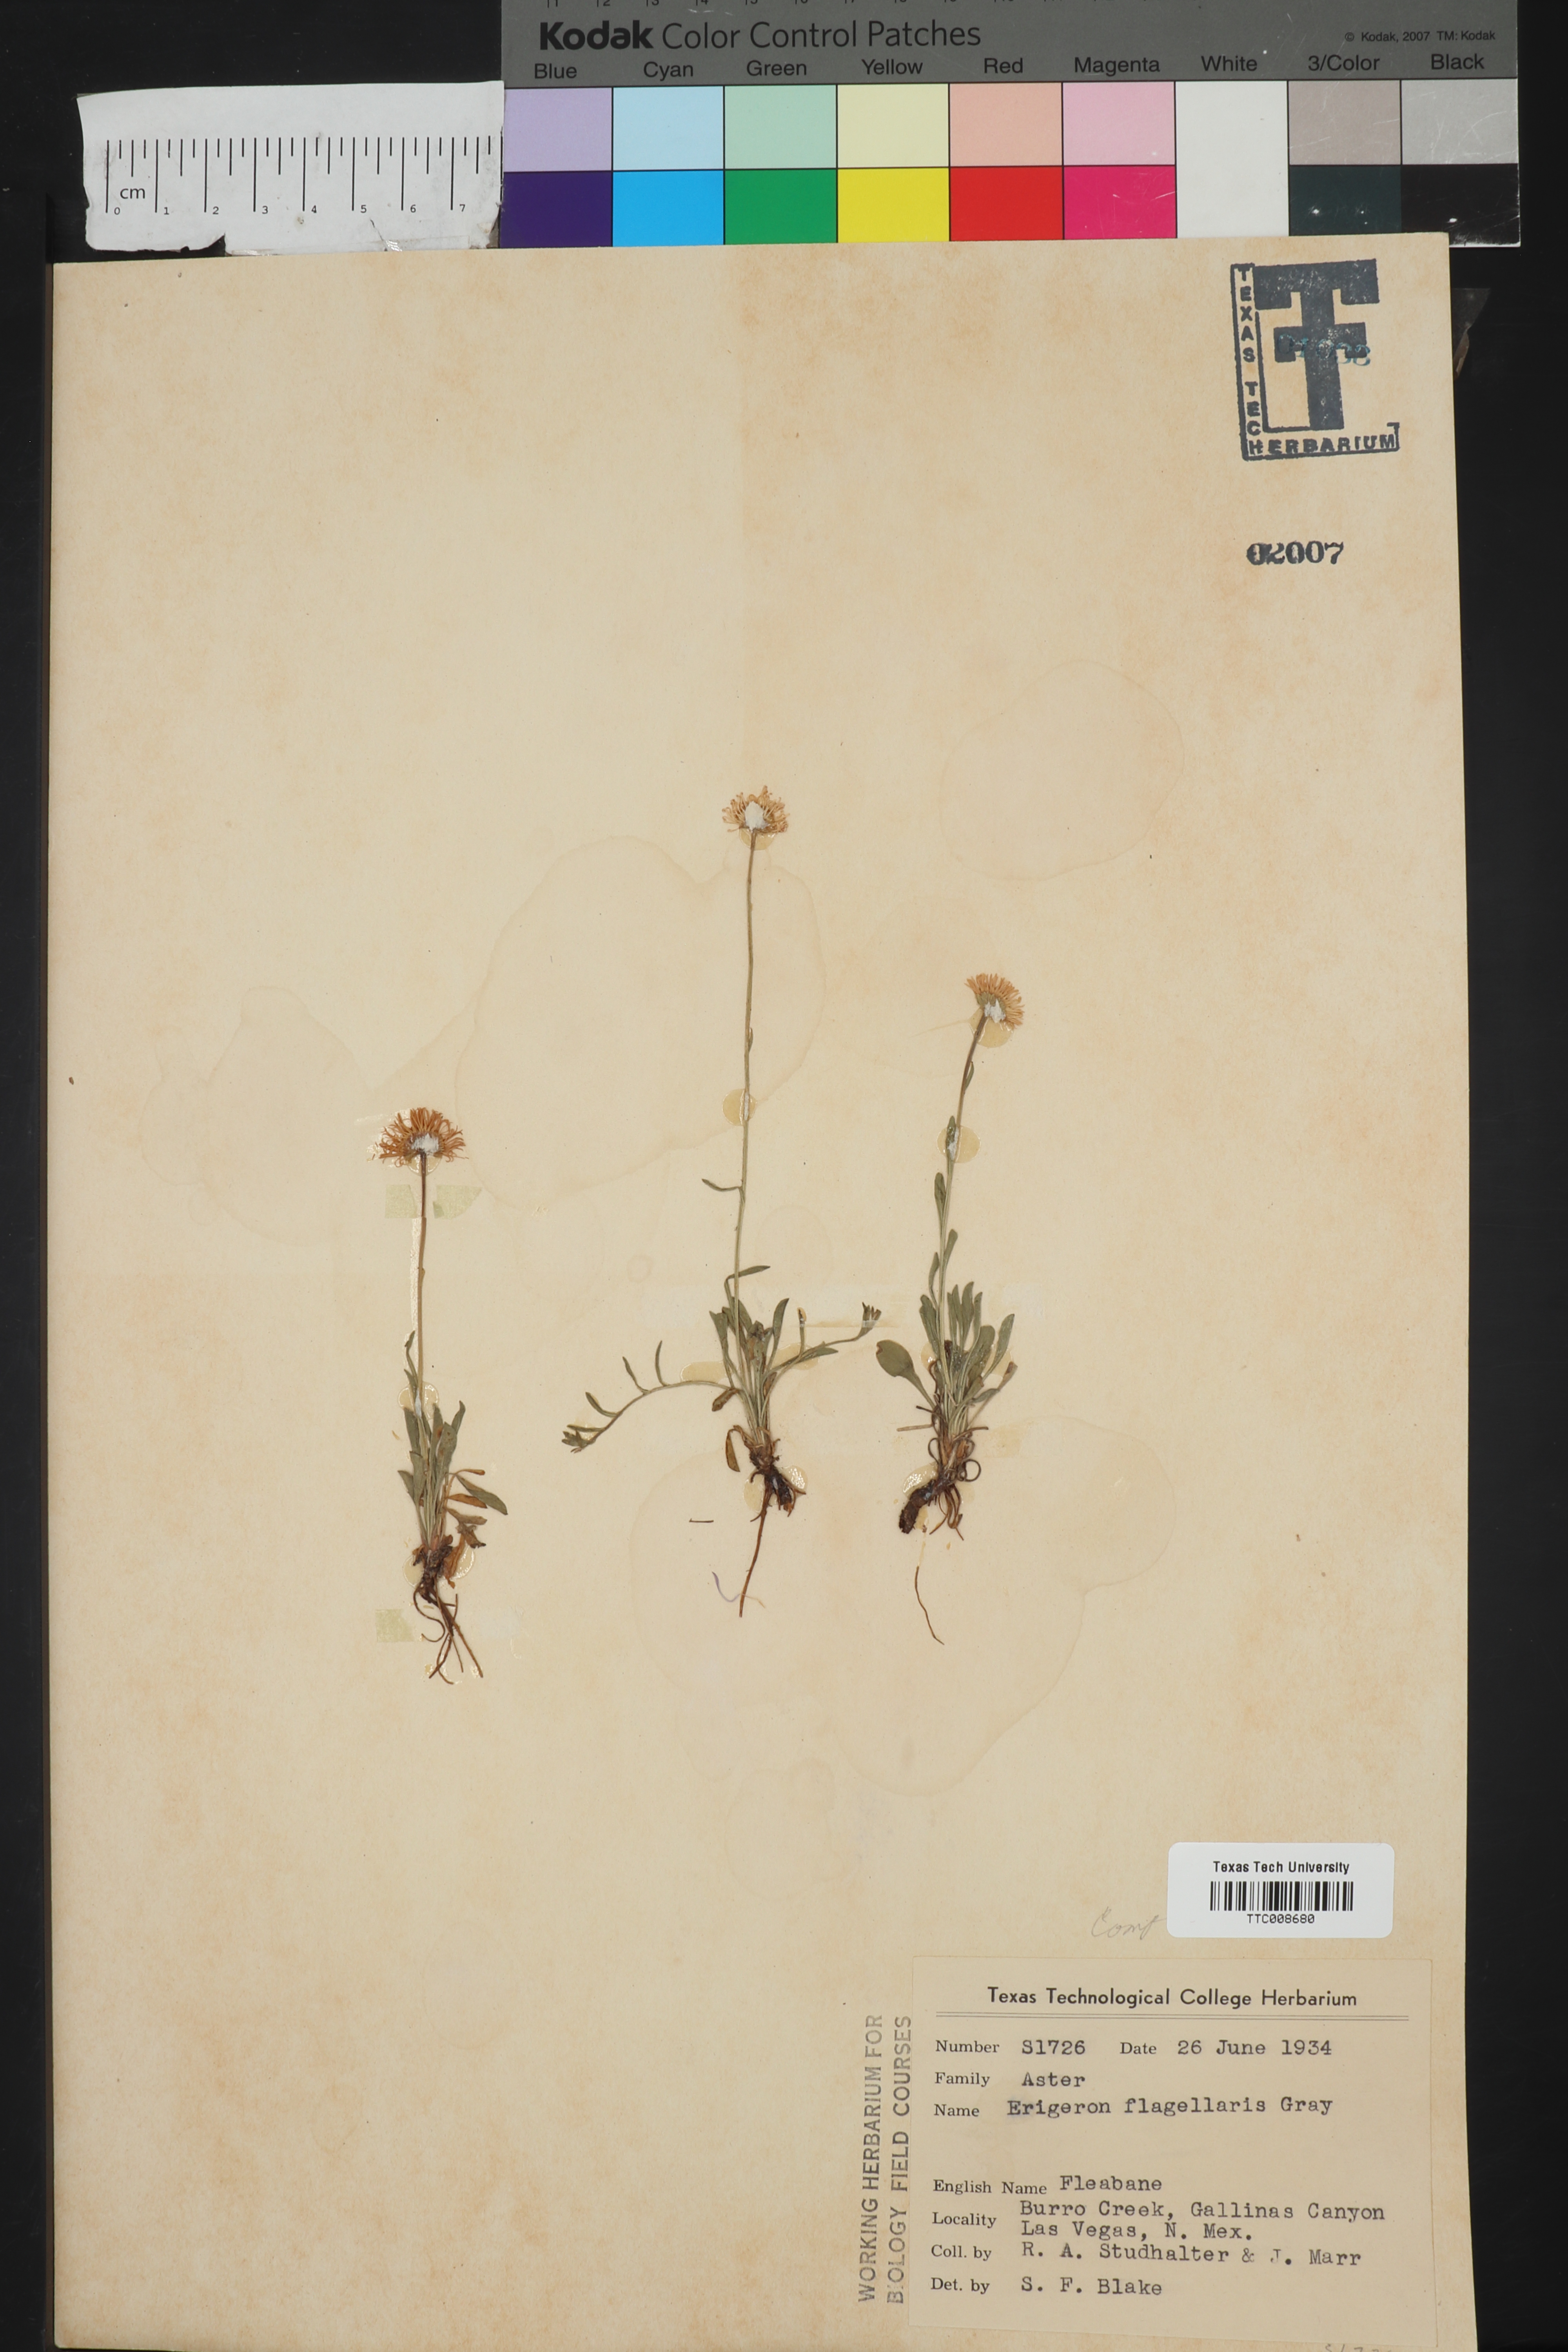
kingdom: Plantae
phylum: Tracheophyta
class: Magnoliopsida
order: Asterales
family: Asteraceae
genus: Erigeron
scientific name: Erigeron flagellaris
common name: Running fleabane
